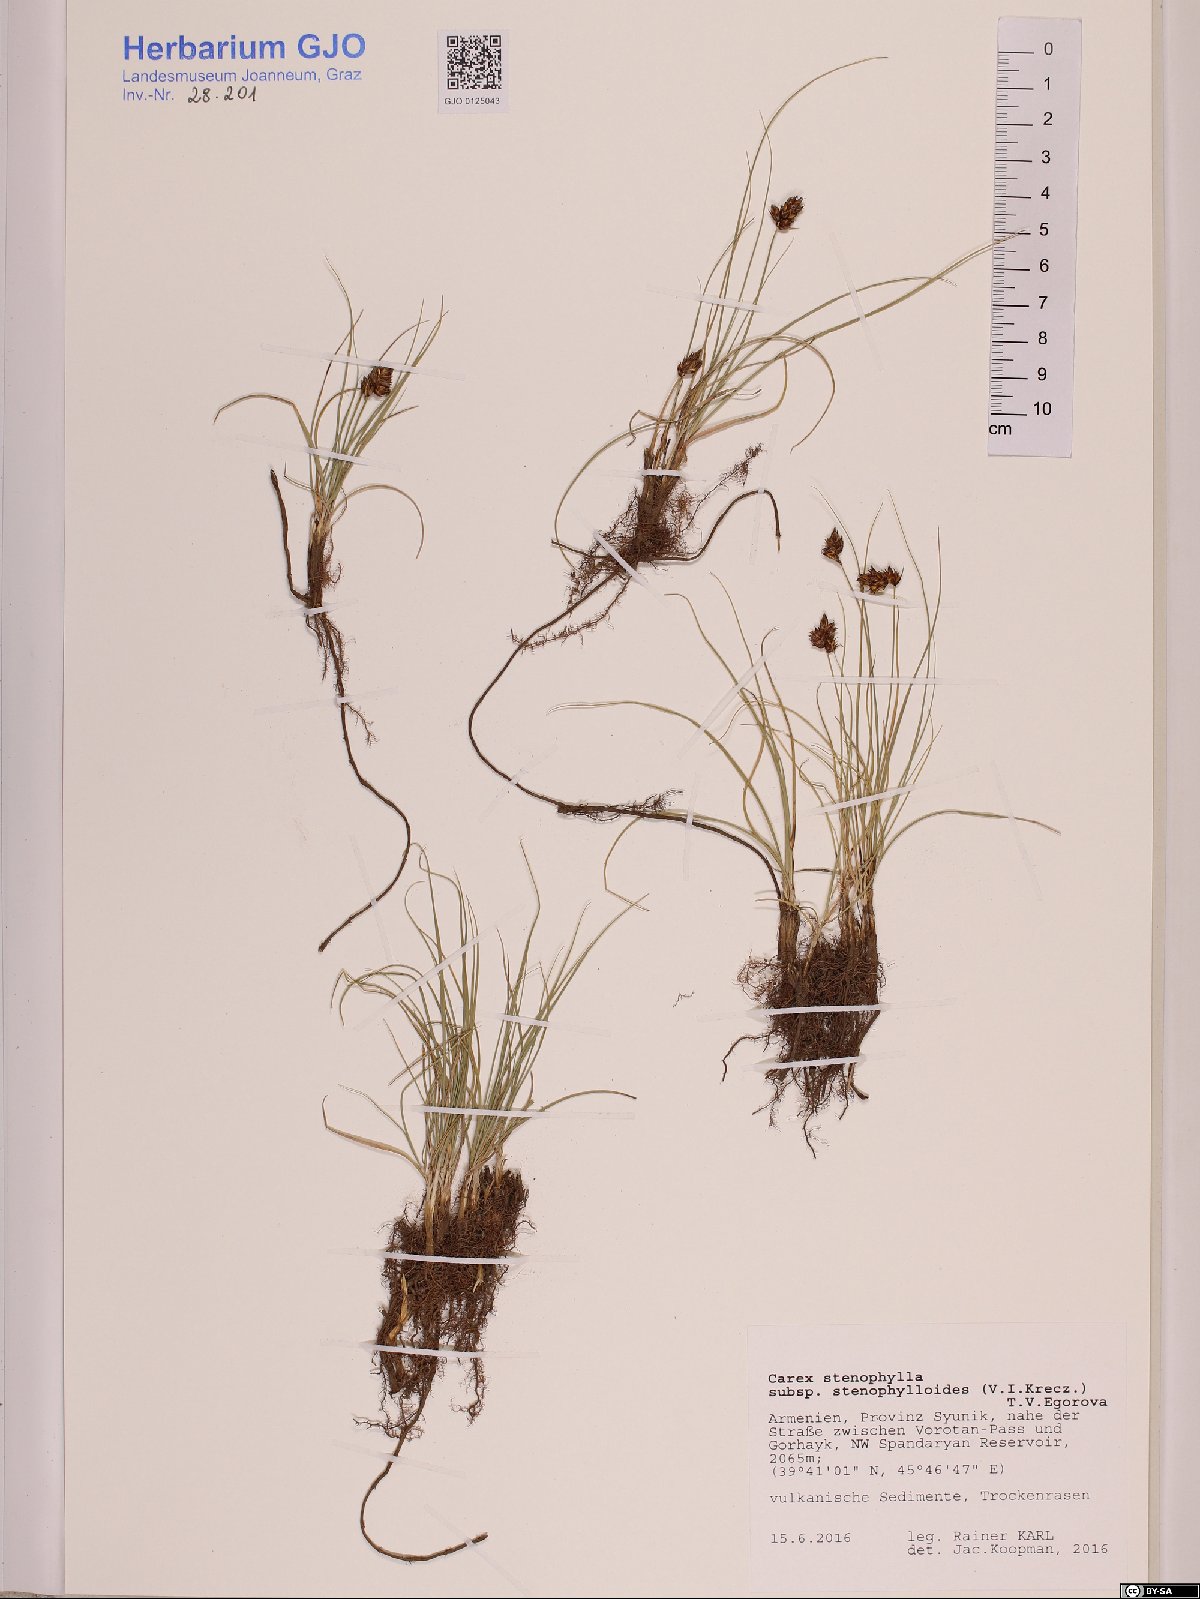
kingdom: Plantae
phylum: Tracheophyta
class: Liliopsida
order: Poales
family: Cyperaceae
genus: Carex
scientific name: Carex stenophylla
